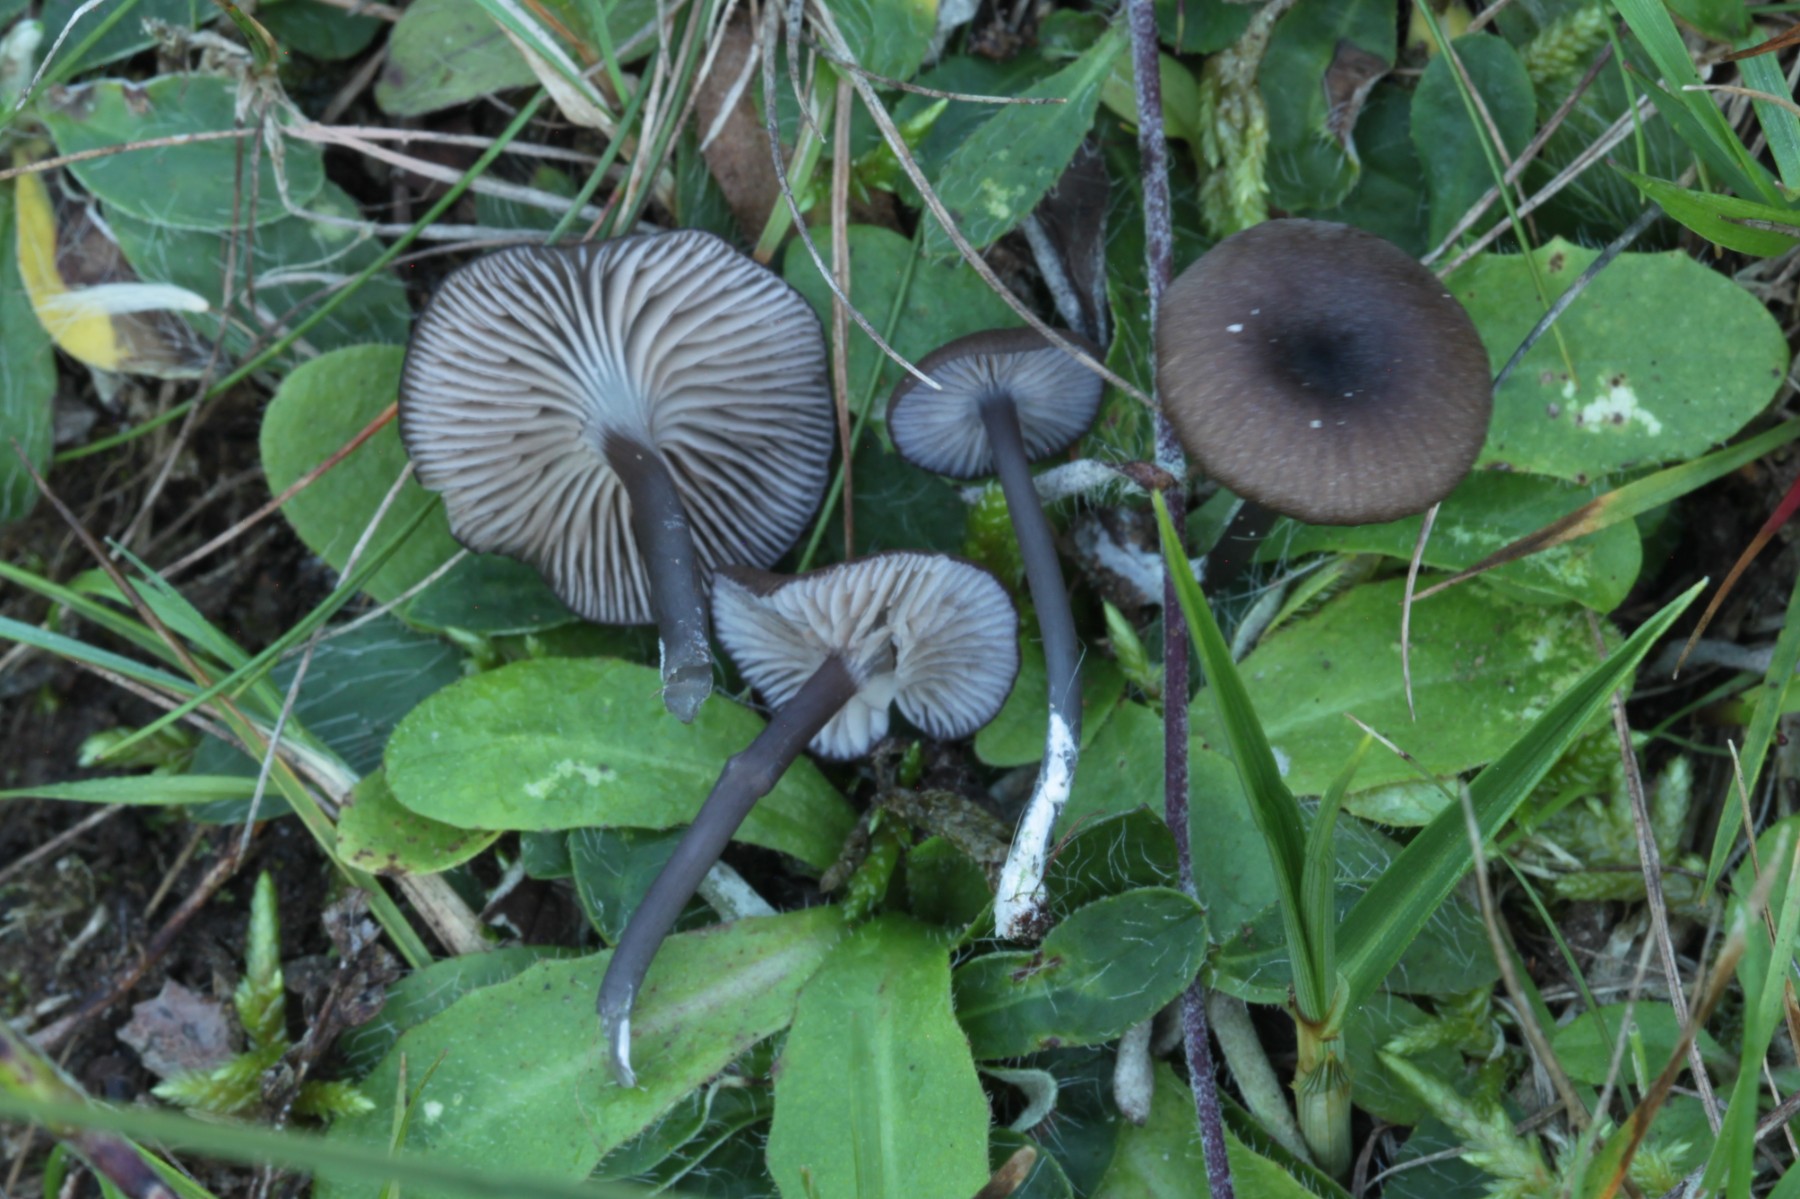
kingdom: Fungi
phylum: Basidiomycota
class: Agaricomycetes
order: Agaricales
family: Entolomataceae
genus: Entoloma
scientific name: Entoloma
